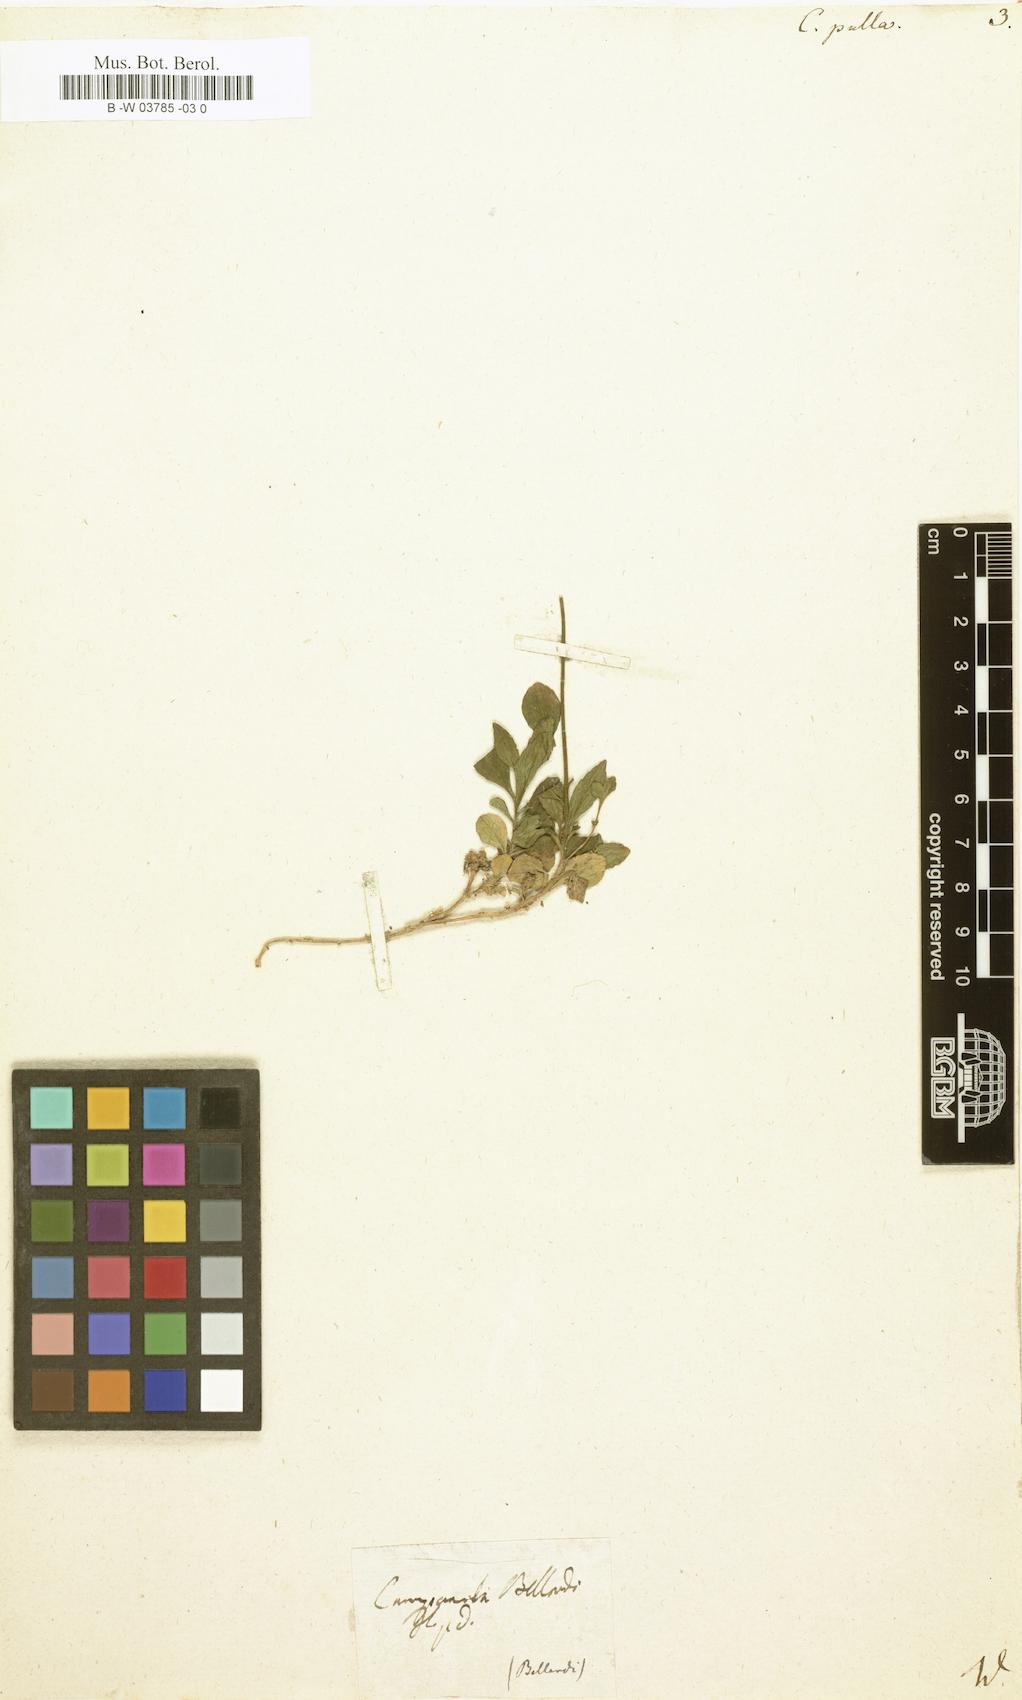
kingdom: Plantae
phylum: Tracheophyta
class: Magnoliopsida
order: Asterales
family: Campanulaceae
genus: Campanula
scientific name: Campanula pulla
